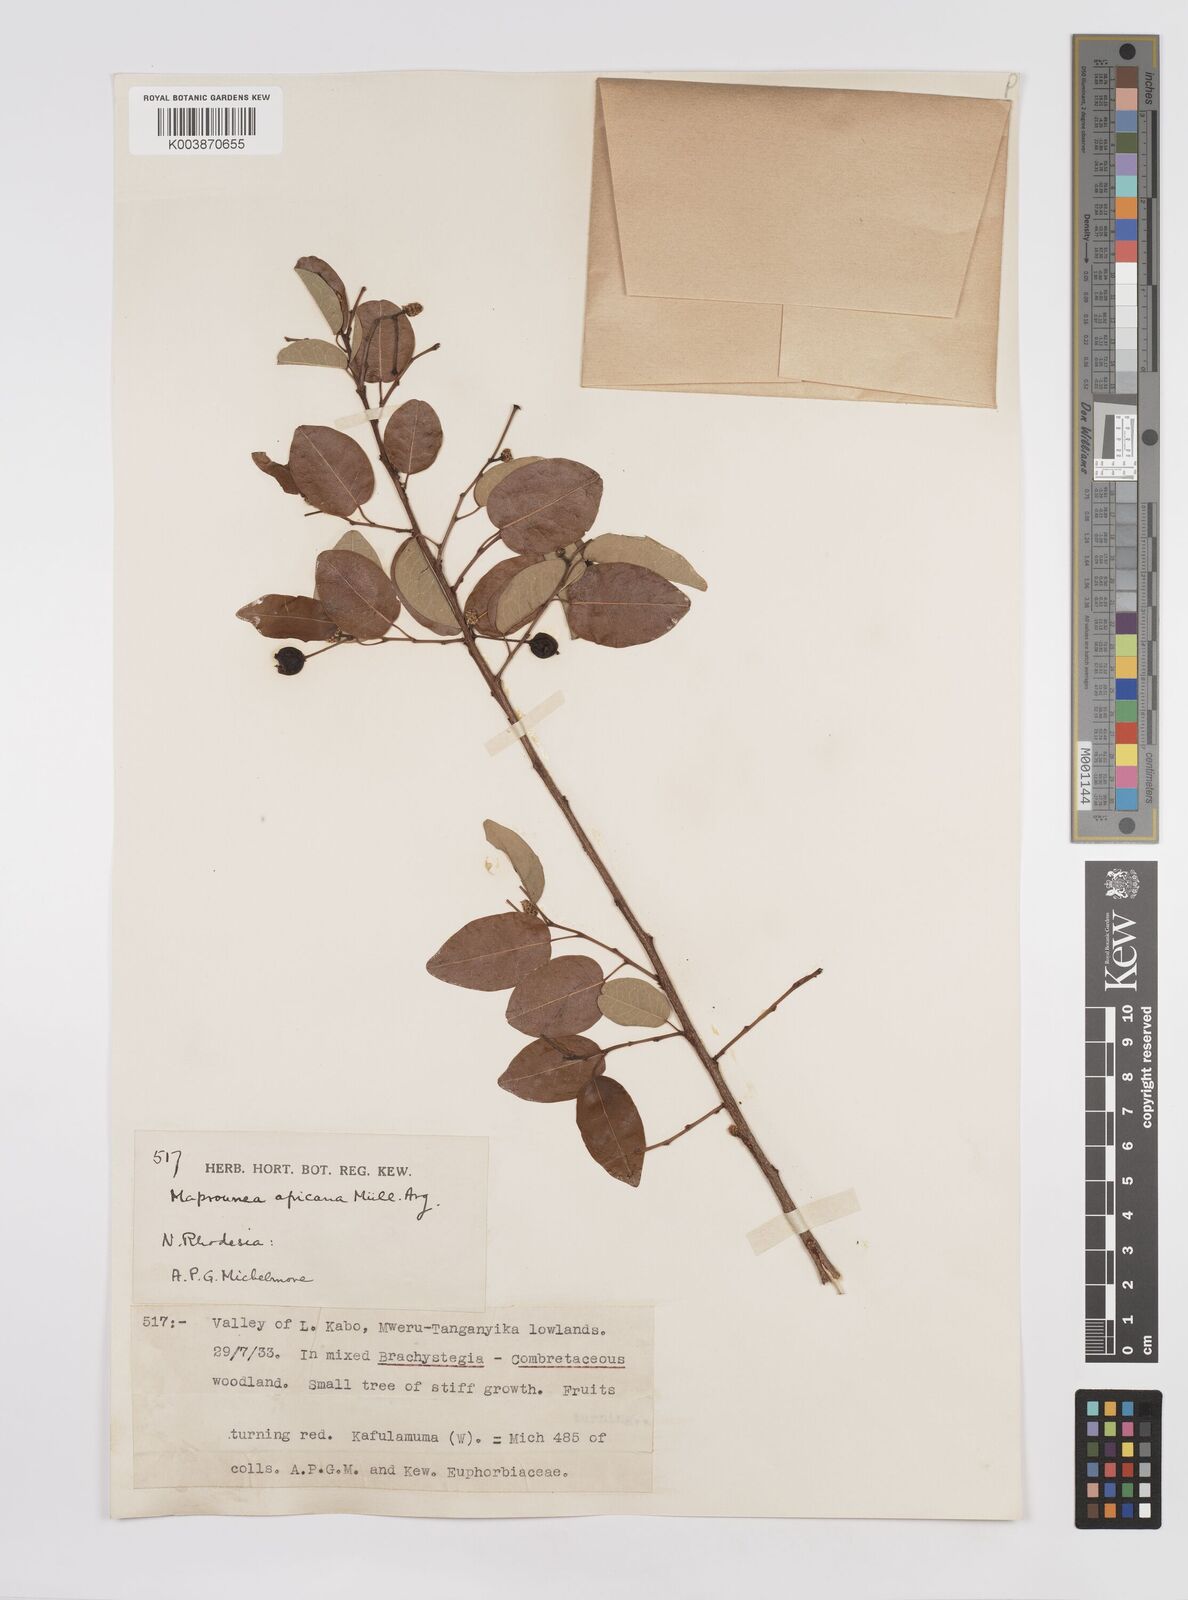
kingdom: Plantae
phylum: Tracheophyta
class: Magnoliopsida
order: Malpighiales
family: Euphorbiaceae
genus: Maprounea
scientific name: Maprounea africana
